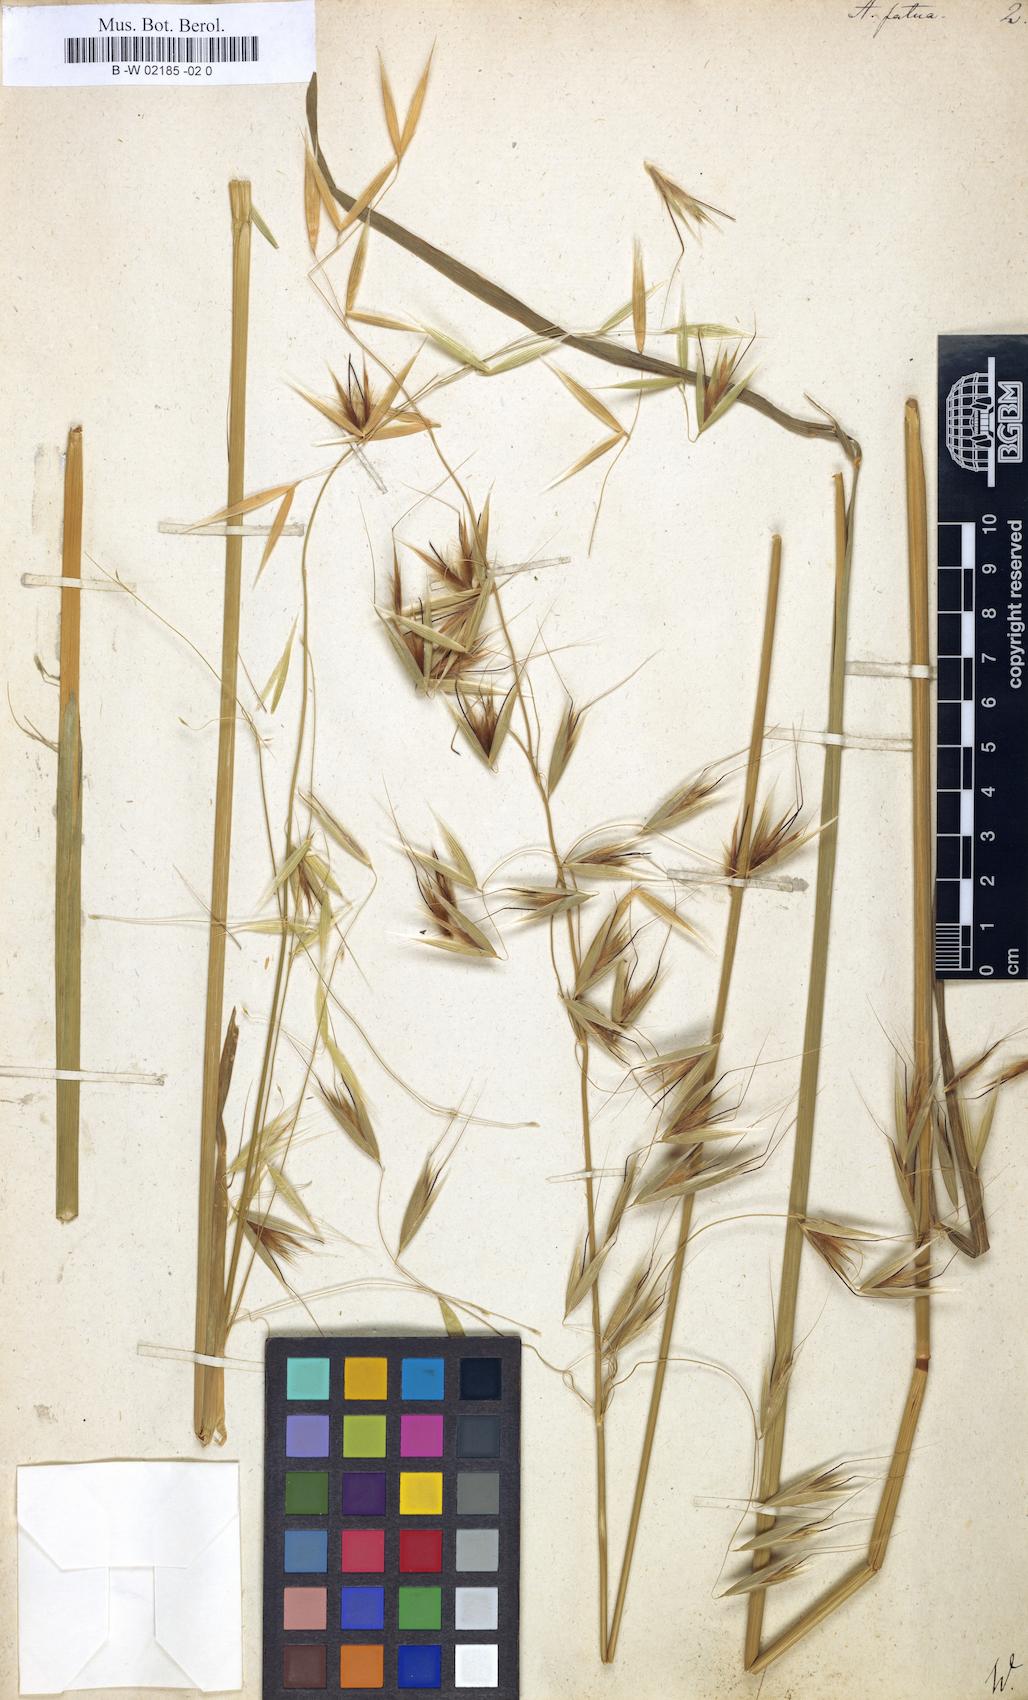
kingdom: Plantae
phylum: Tracheophyta
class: Liliopsida
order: Poales
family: Poaceae
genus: Avena
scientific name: Avena fatua
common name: Wild oat
